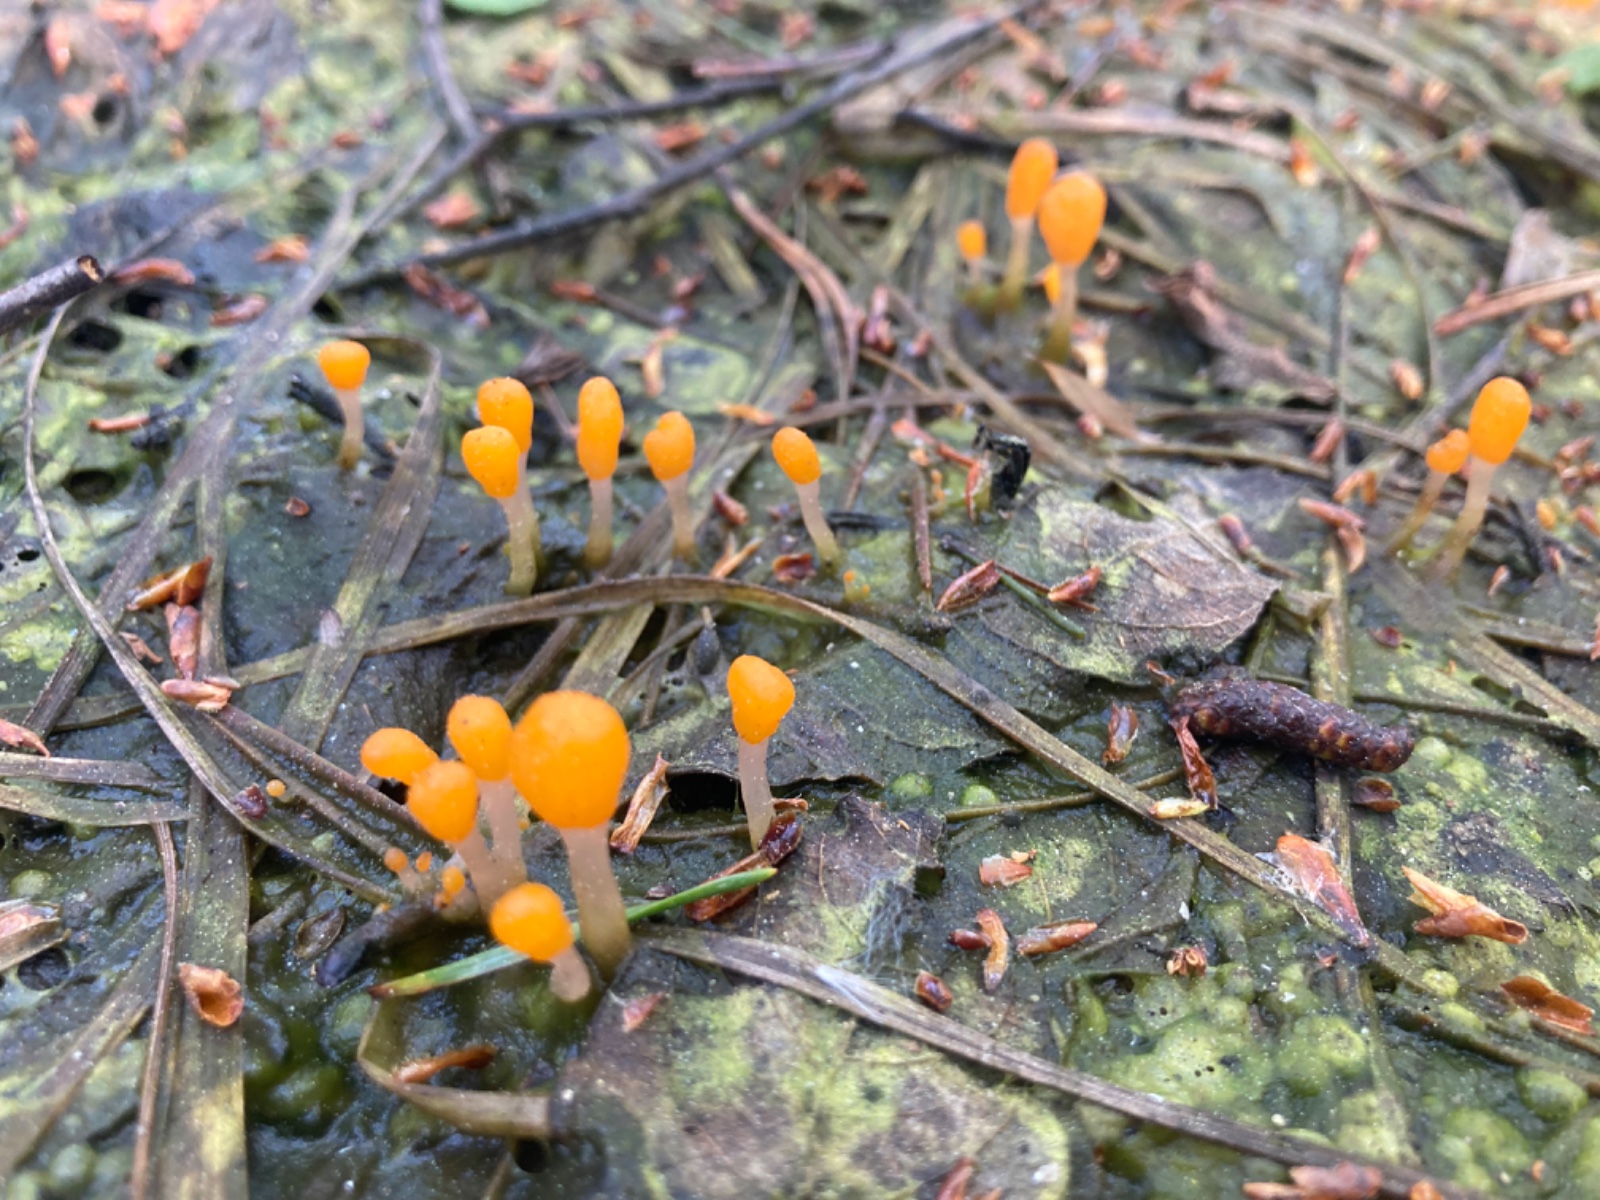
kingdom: Fungi
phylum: Ascomycota
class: Leotiomycetes
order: Helotiales
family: Cenangiaceae
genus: Mitrula
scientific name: Mitrula paludosa
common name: gul nøkketunge
